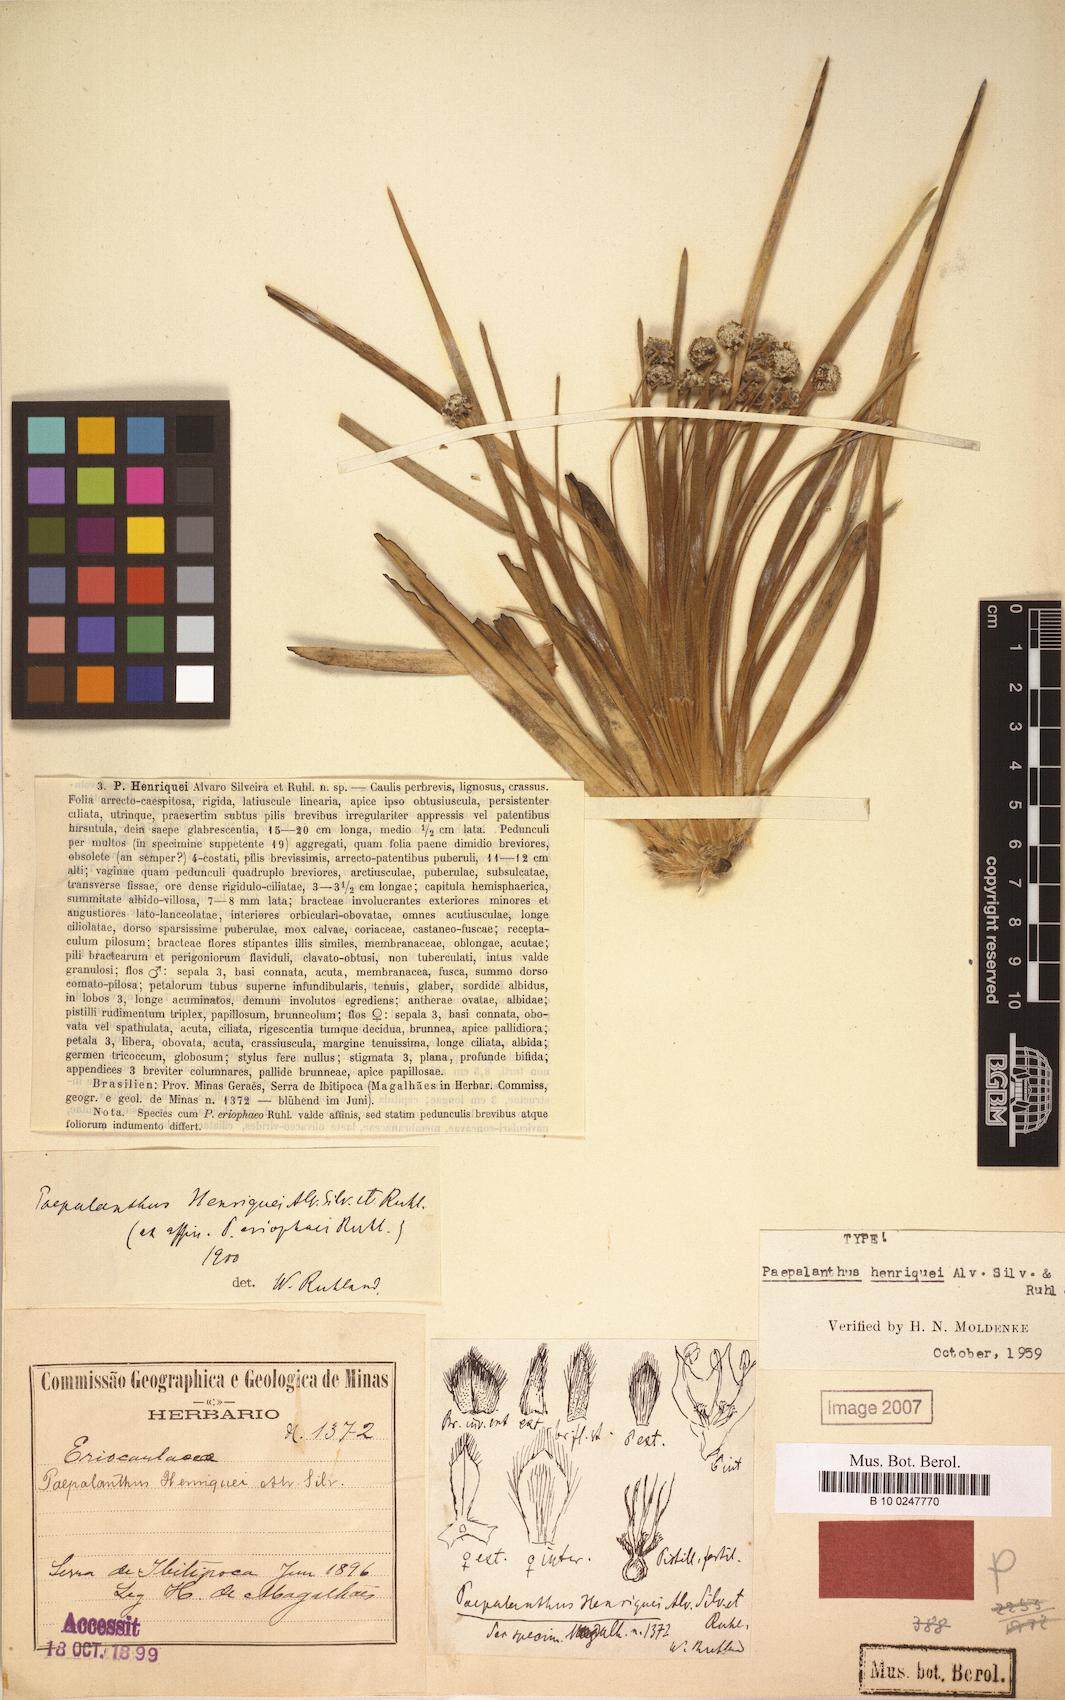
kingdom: Plantae
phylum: Tracheophyta
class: Liliopsida
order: Poales
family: Eriocaulaceae
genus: Paepalanthus
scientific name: Paepalanthus henriquei
